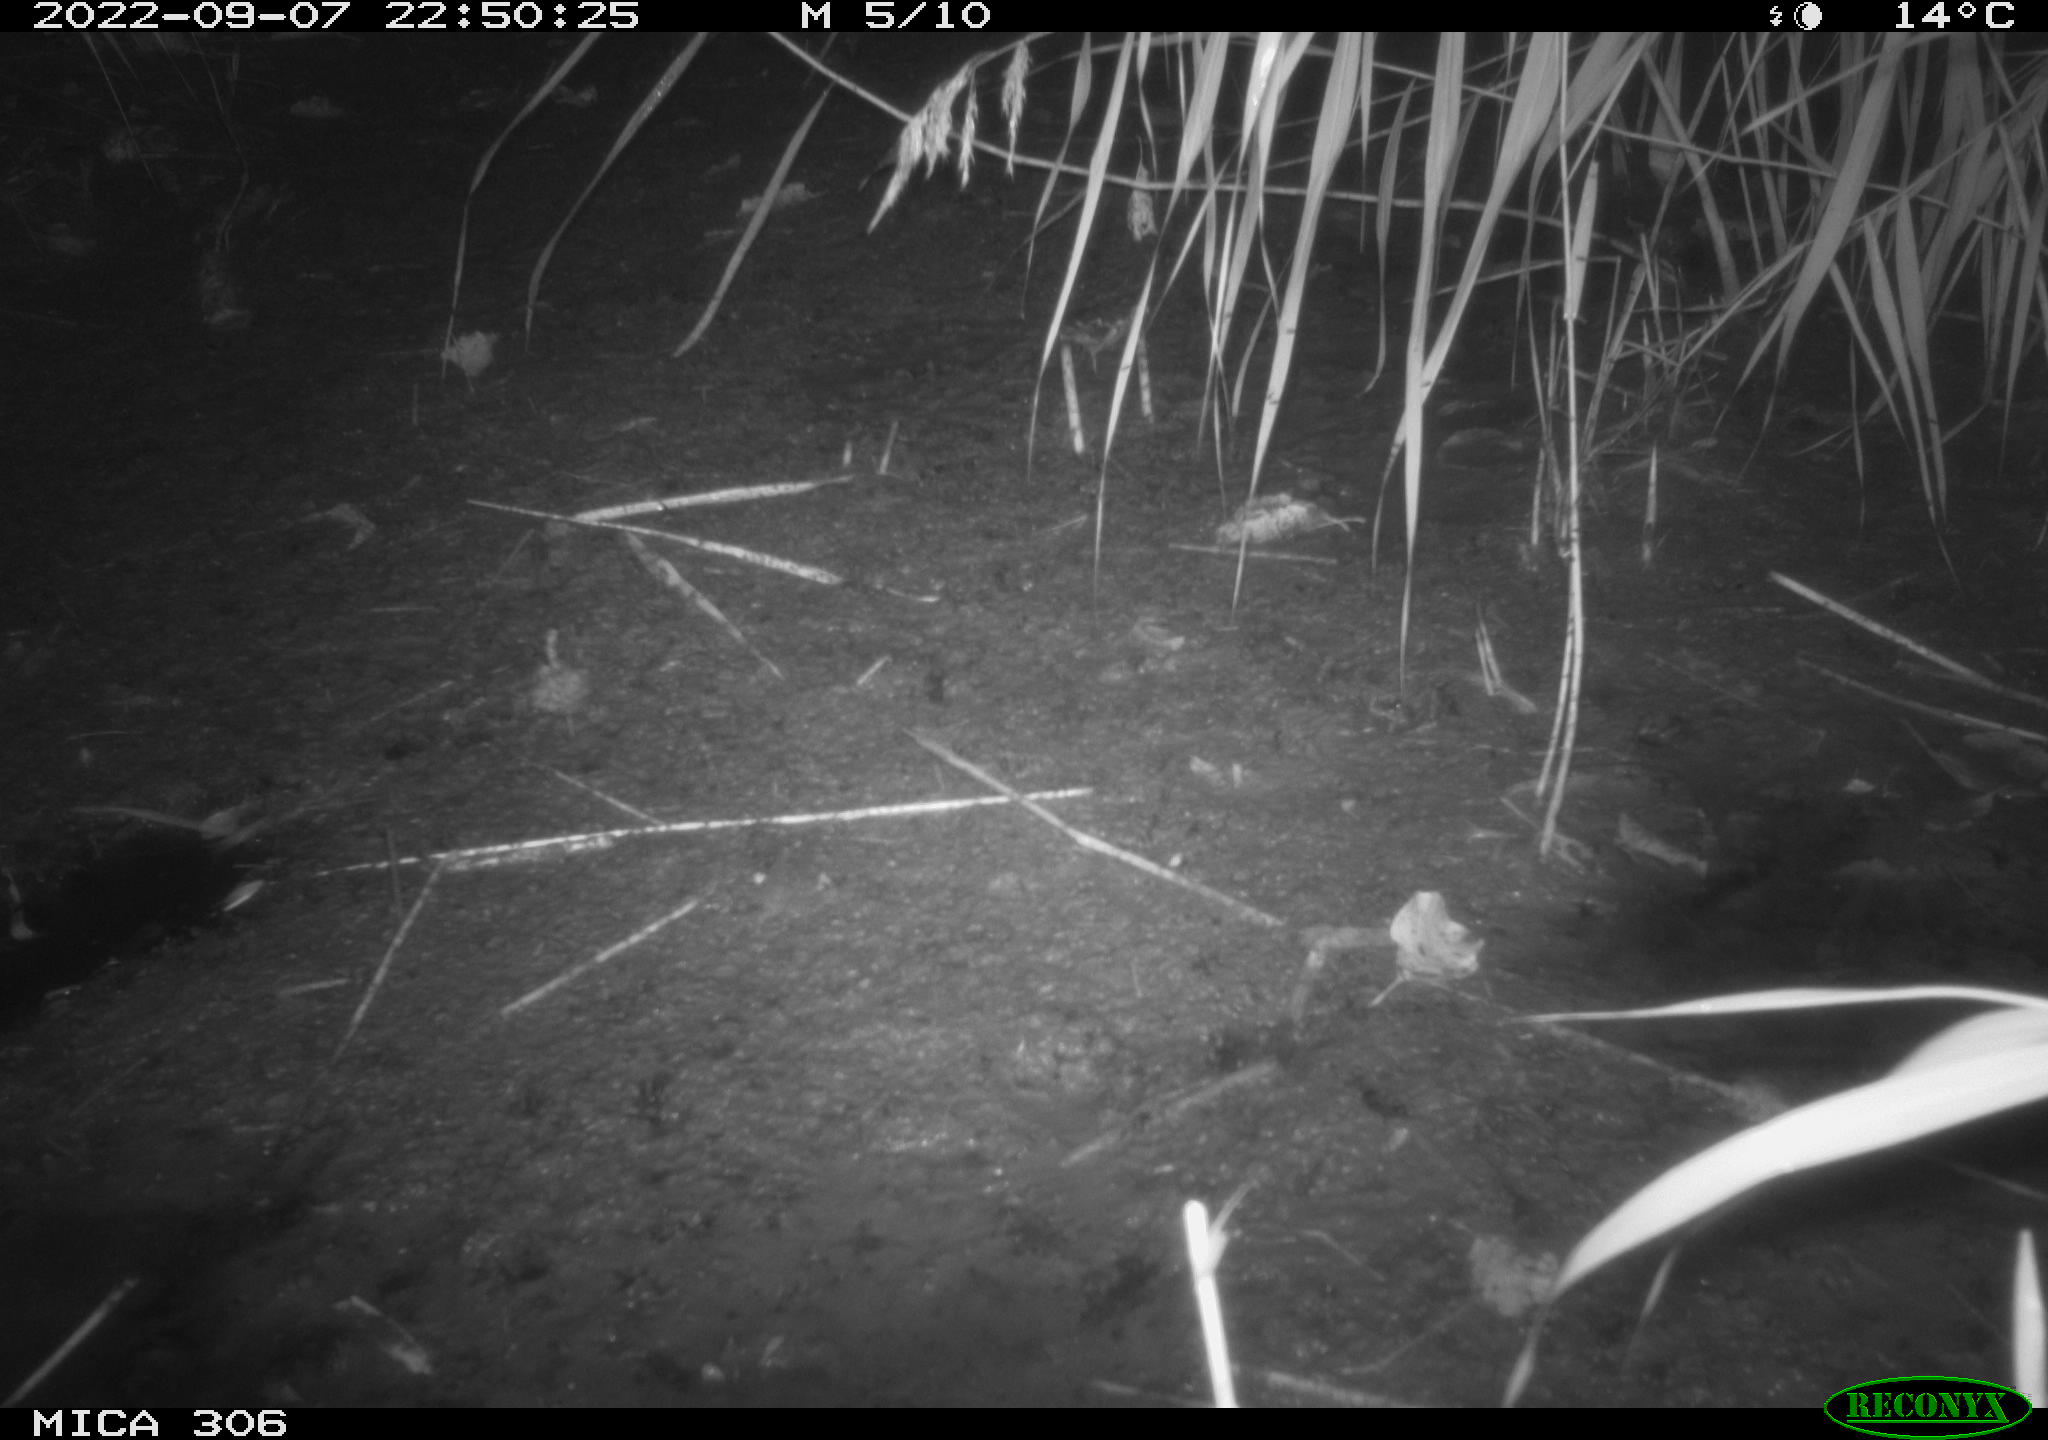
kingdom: Animalia
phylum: Chordata
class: Mammalia
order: Rodentia
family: Muridae
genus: Rattus
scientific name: Rattus norvegicus
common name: Brown rat
